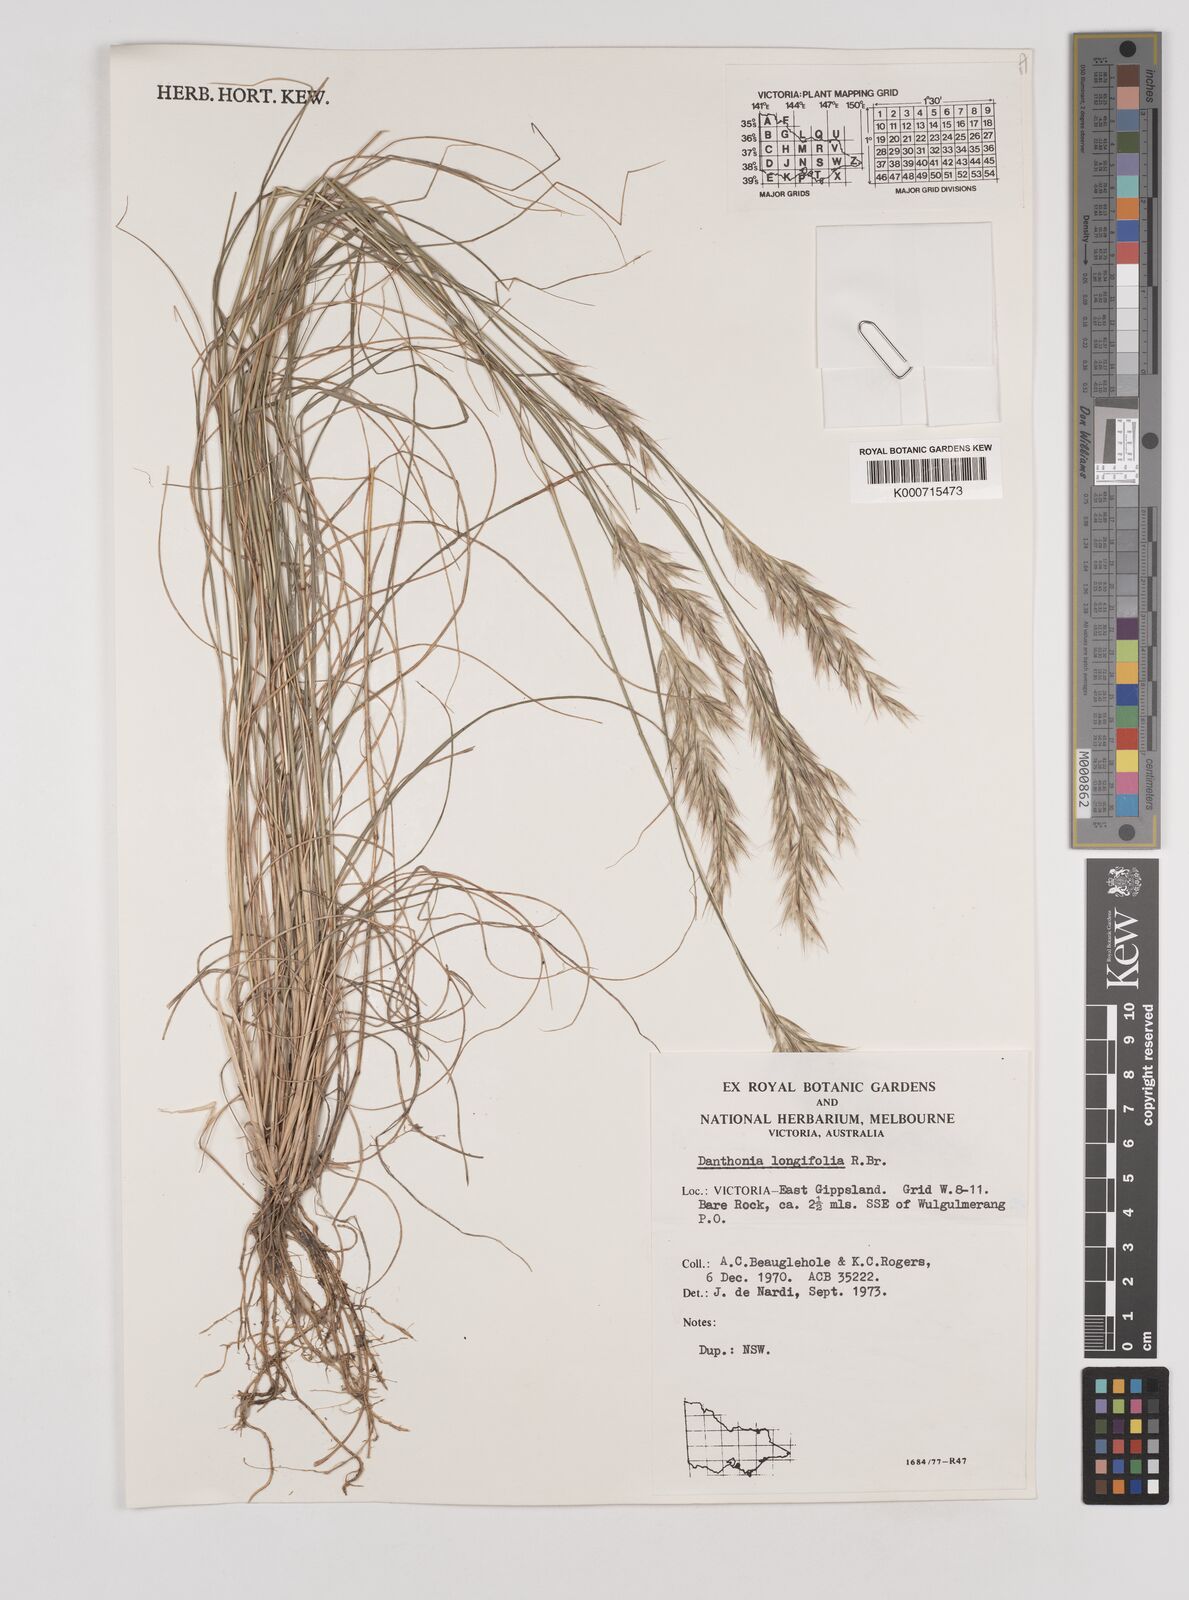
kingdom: Plantae
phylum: Tracheophyta
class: Liliopsida
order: Poales
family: Poaceae
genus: Rytidosperma
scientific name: Rytidosperma longifolium
